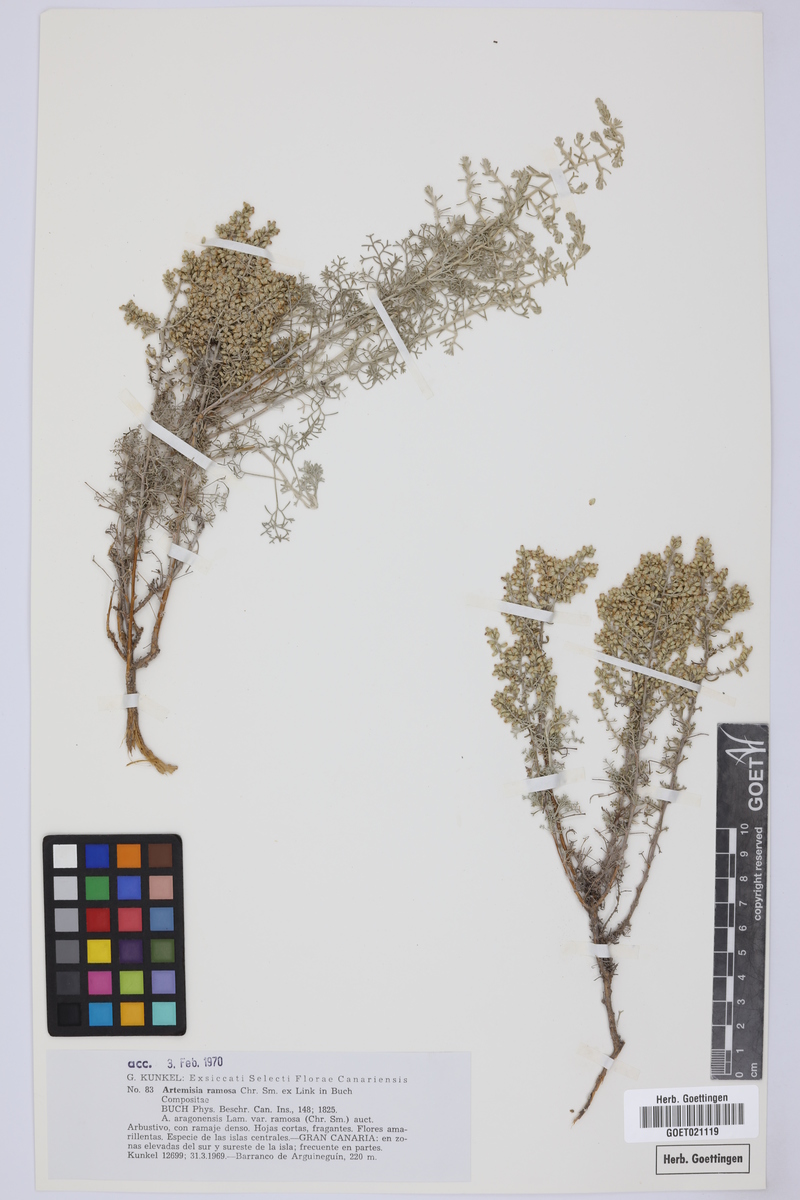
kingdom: Plantae
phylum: Tracheophyta
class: Magnoliopsida
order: Asterales
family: Asteraceae
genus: Artemisia
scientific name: Artemisia ramosa
